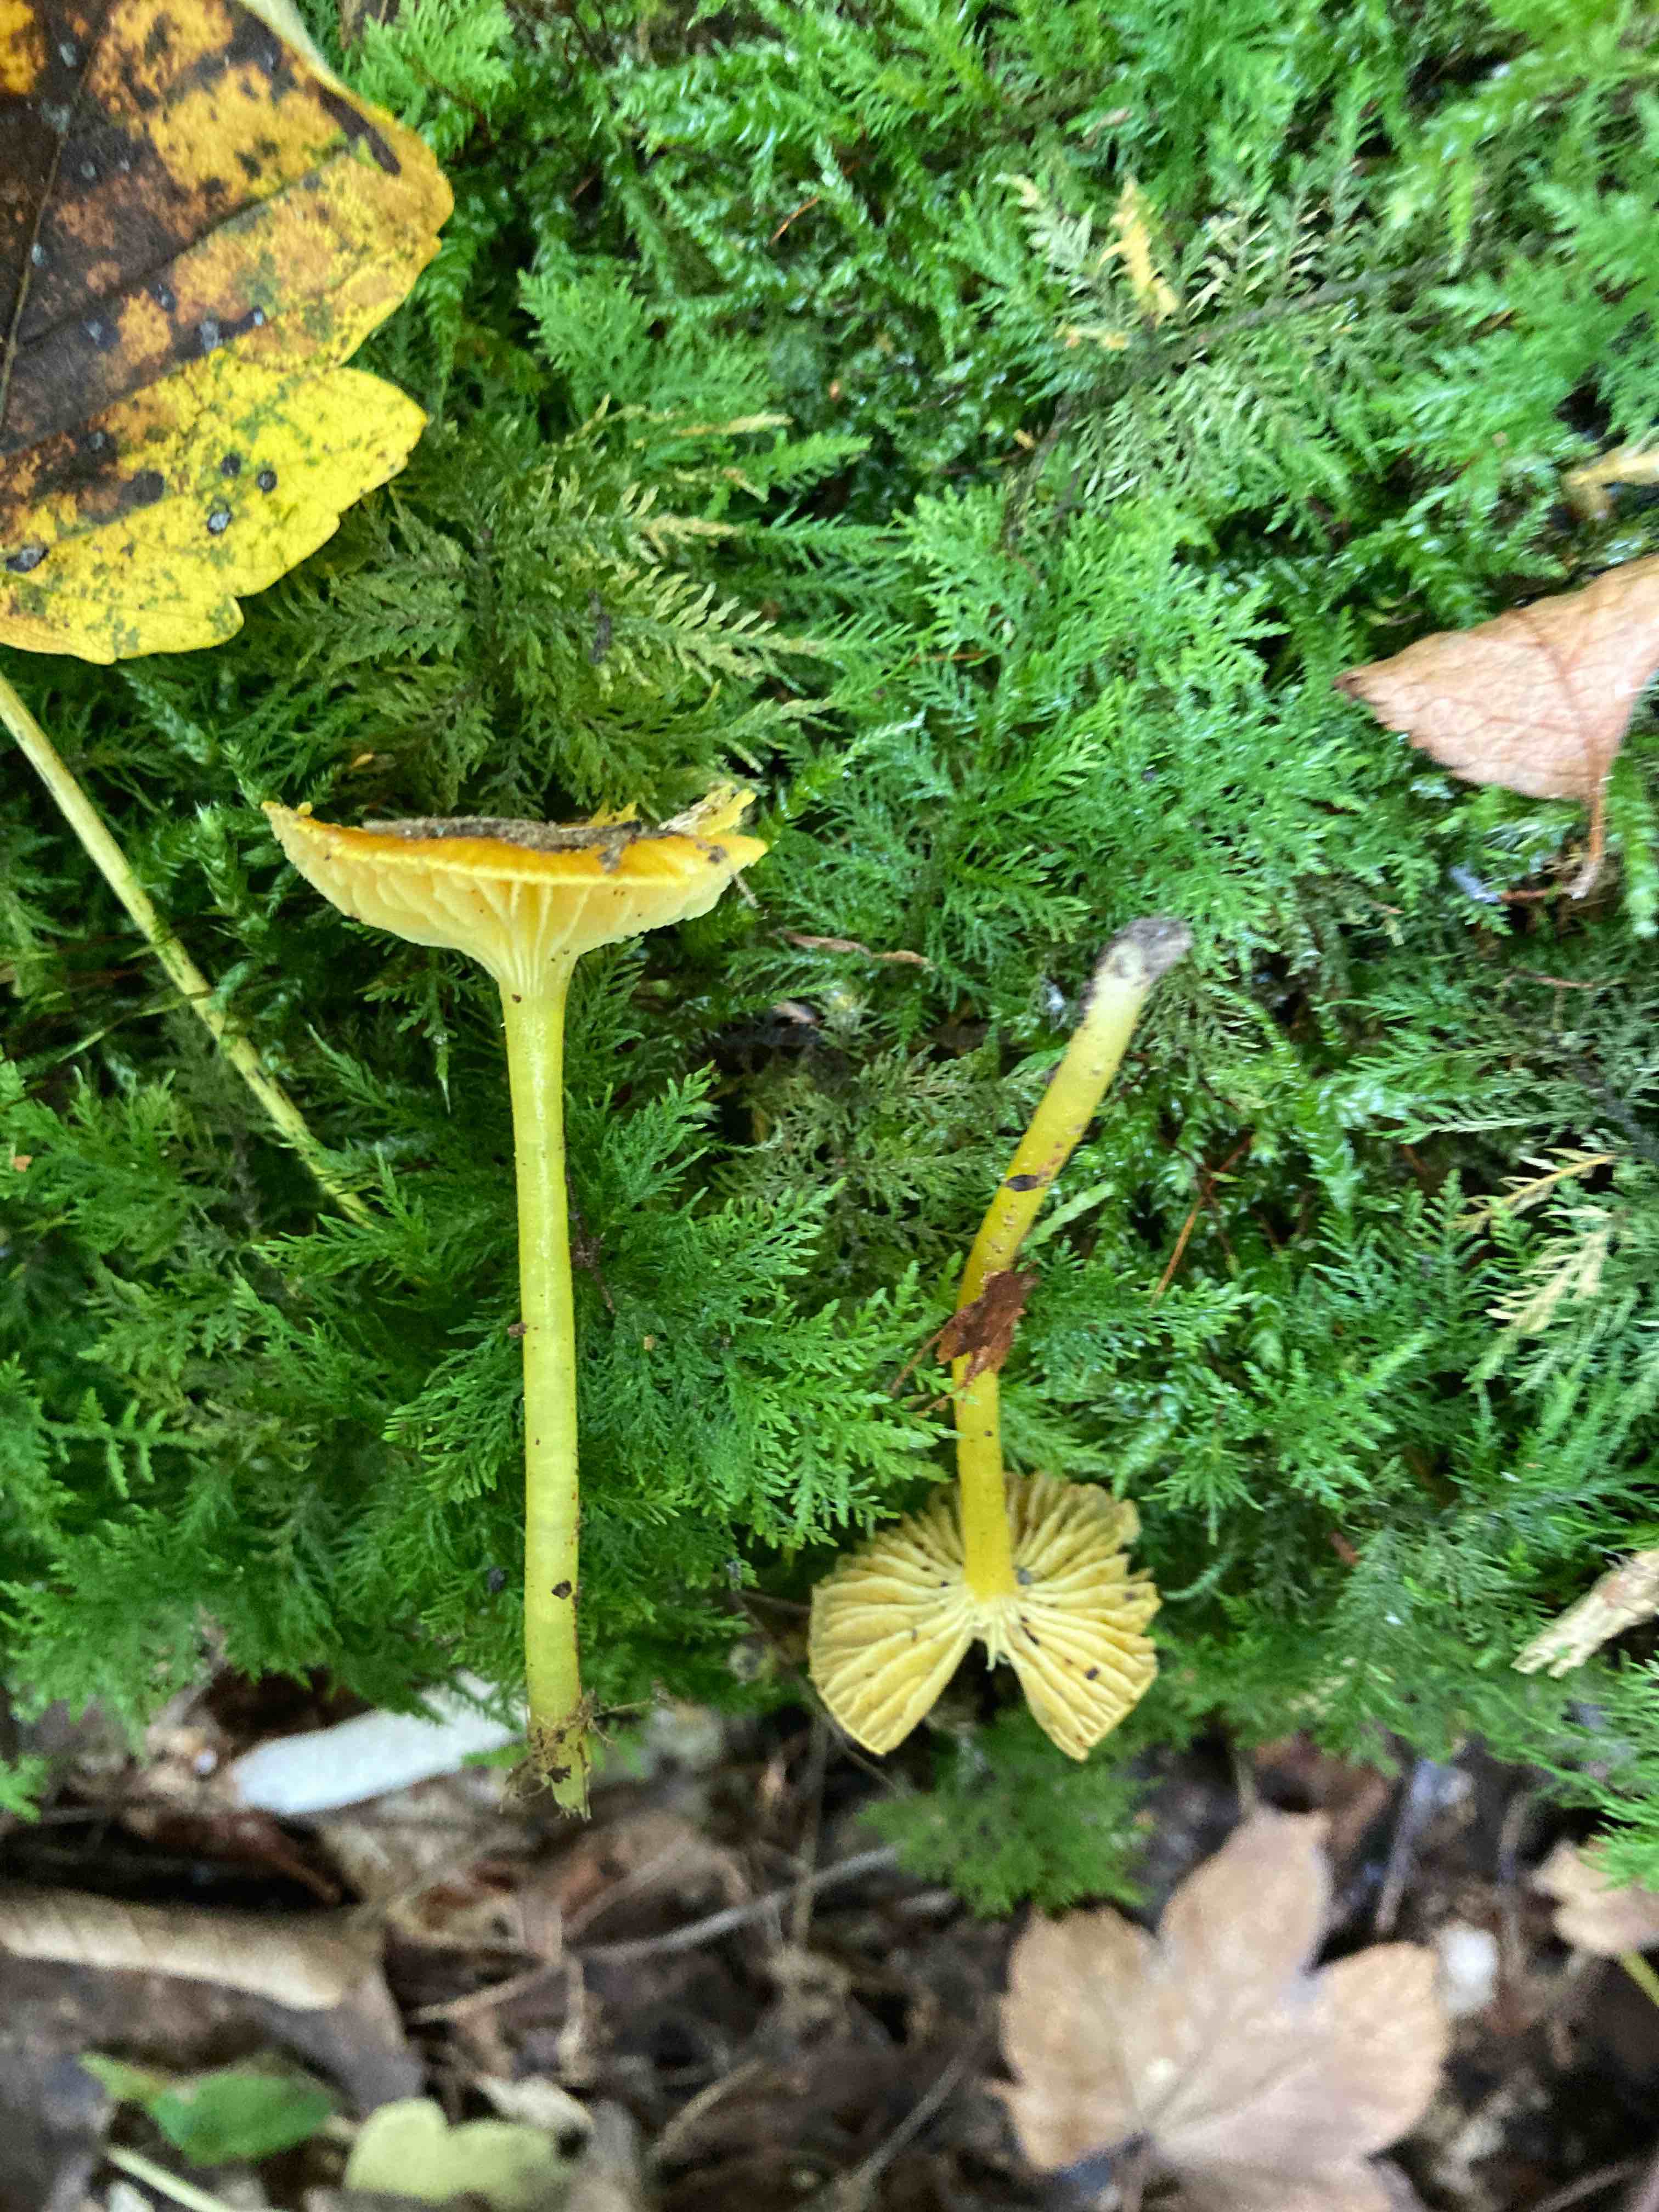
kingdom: Fungi
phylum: Basidiomycota
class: Agaricomycetes
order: Agaricales
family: Hygrophoraceae
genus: Hygrocybe
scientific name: Hygrocybe glutinipes
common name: slimstokket vokshat
